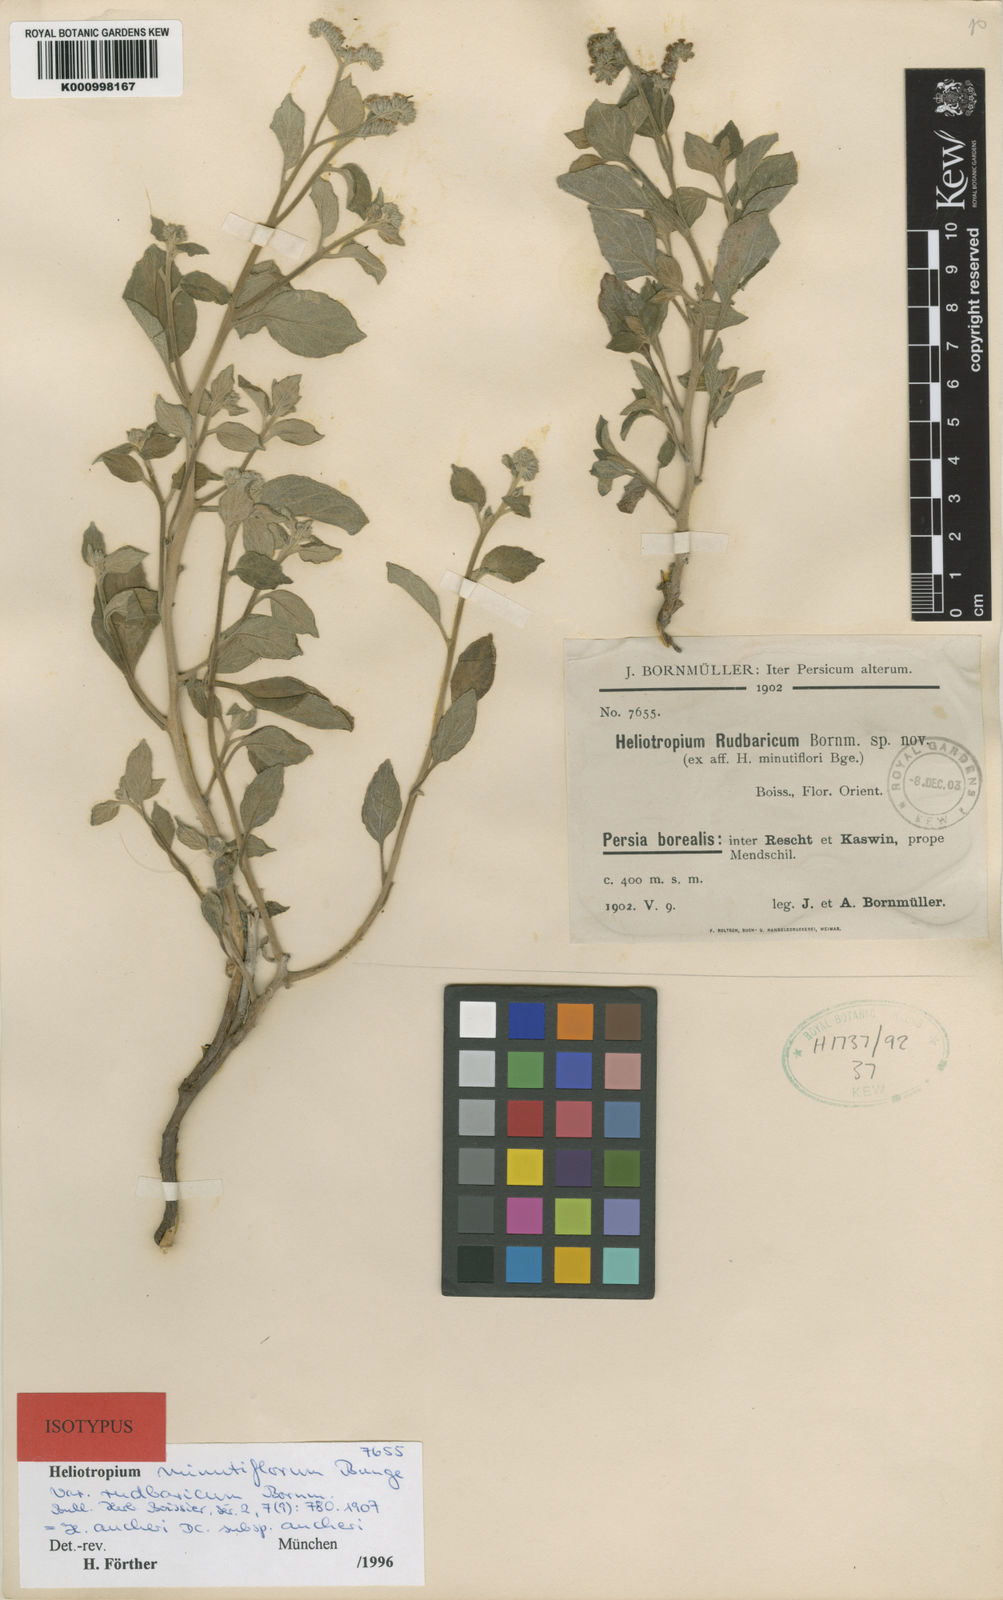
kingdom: Plantae
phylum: Tracheophyta
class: Magnoliopsida
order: Boraginales
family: Heliotropiaceae
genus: Heliotropium
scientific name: Heliotropium minutiflorum
